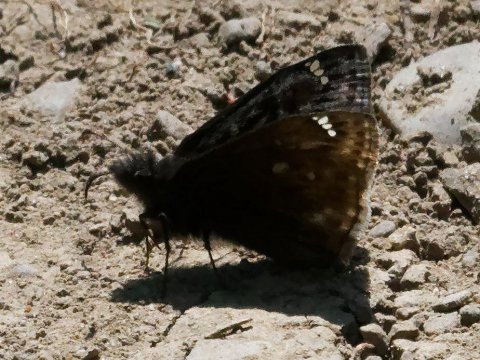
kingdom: Animalia
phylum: Arthropoda
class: Insecta
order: Lepidoptera
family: Hesperiidae
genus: Gesta
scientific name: Gesta
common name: Juvenal's Duskywing
